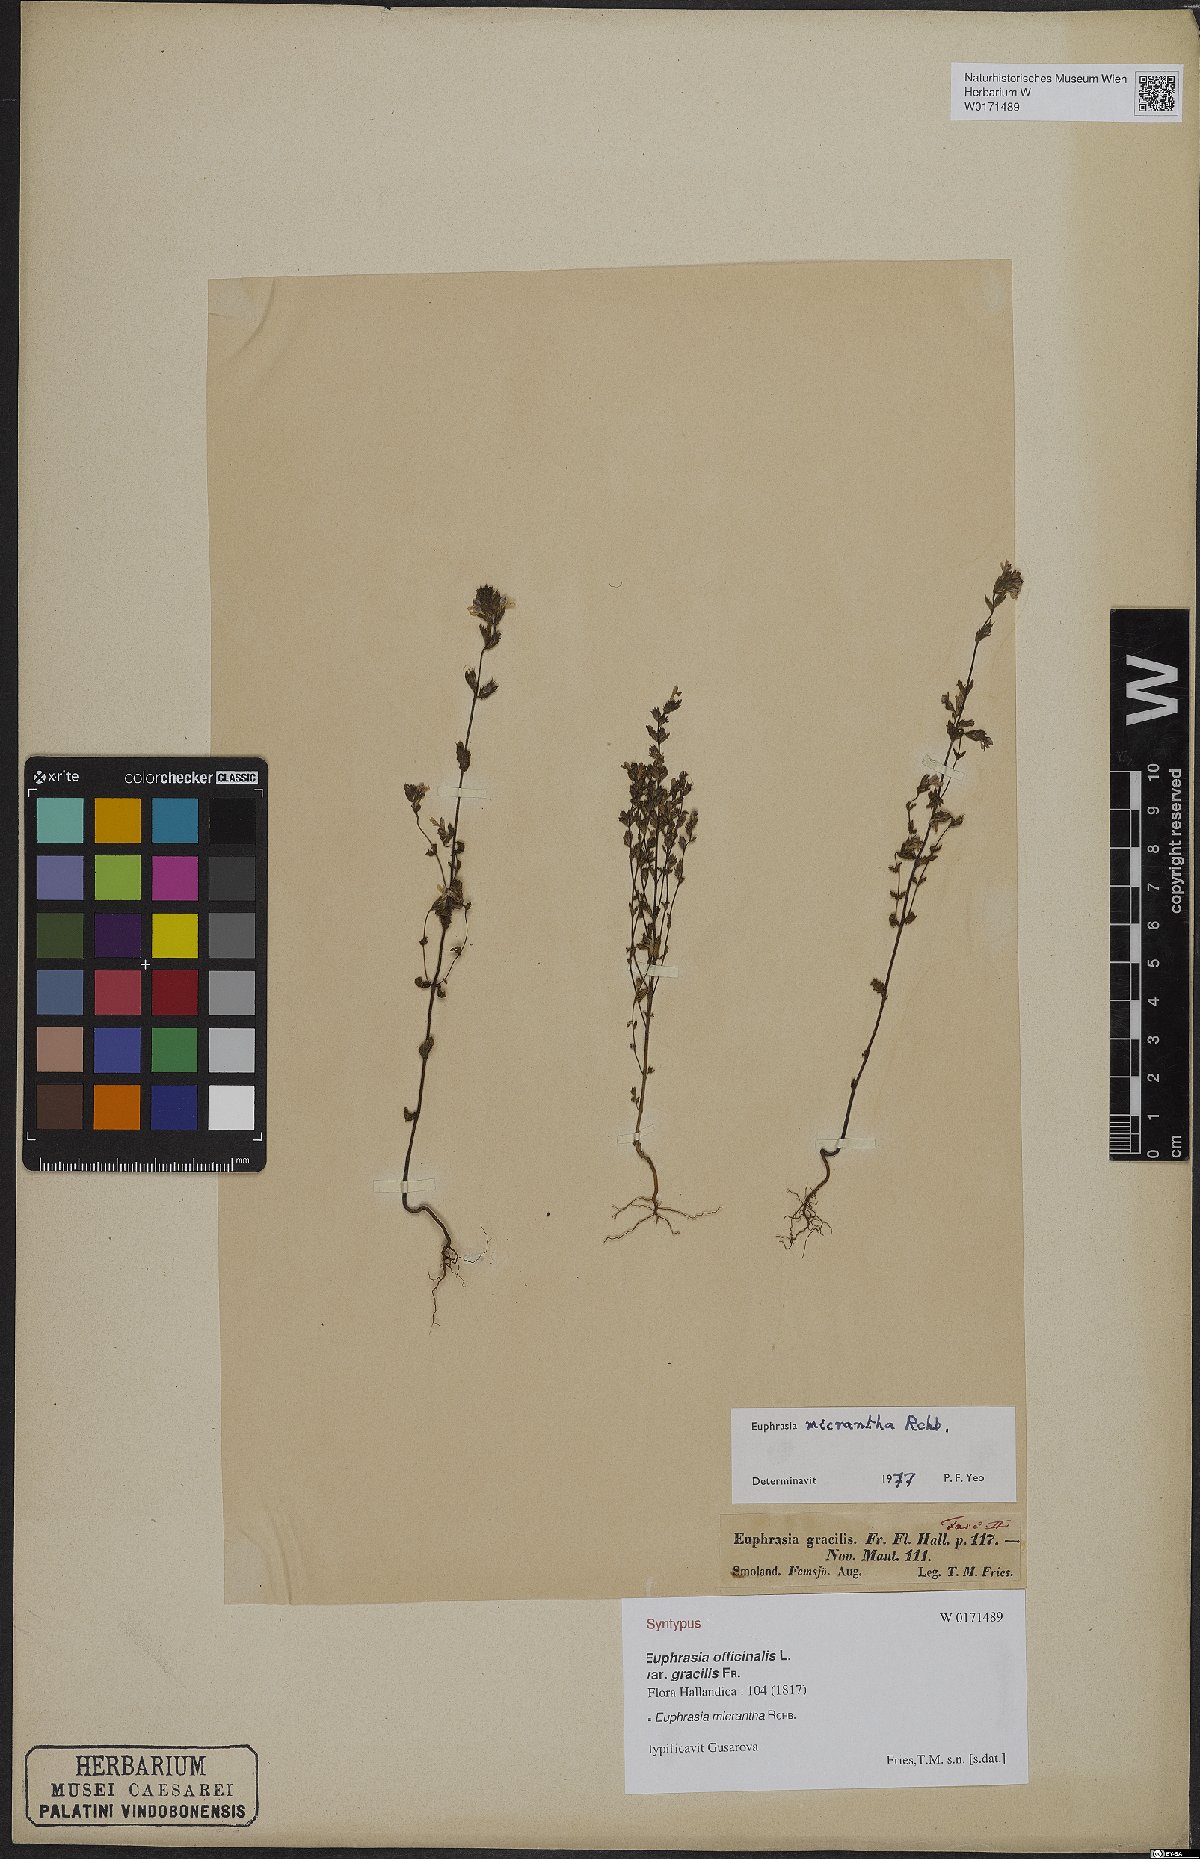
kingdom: Plantae
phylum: Tracheophyta
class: Magnoliopsida
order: Lamiales
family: Orobanchaceae
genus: Euphrasia
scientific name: Euphrasia micrantha
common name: Northern eyebright
